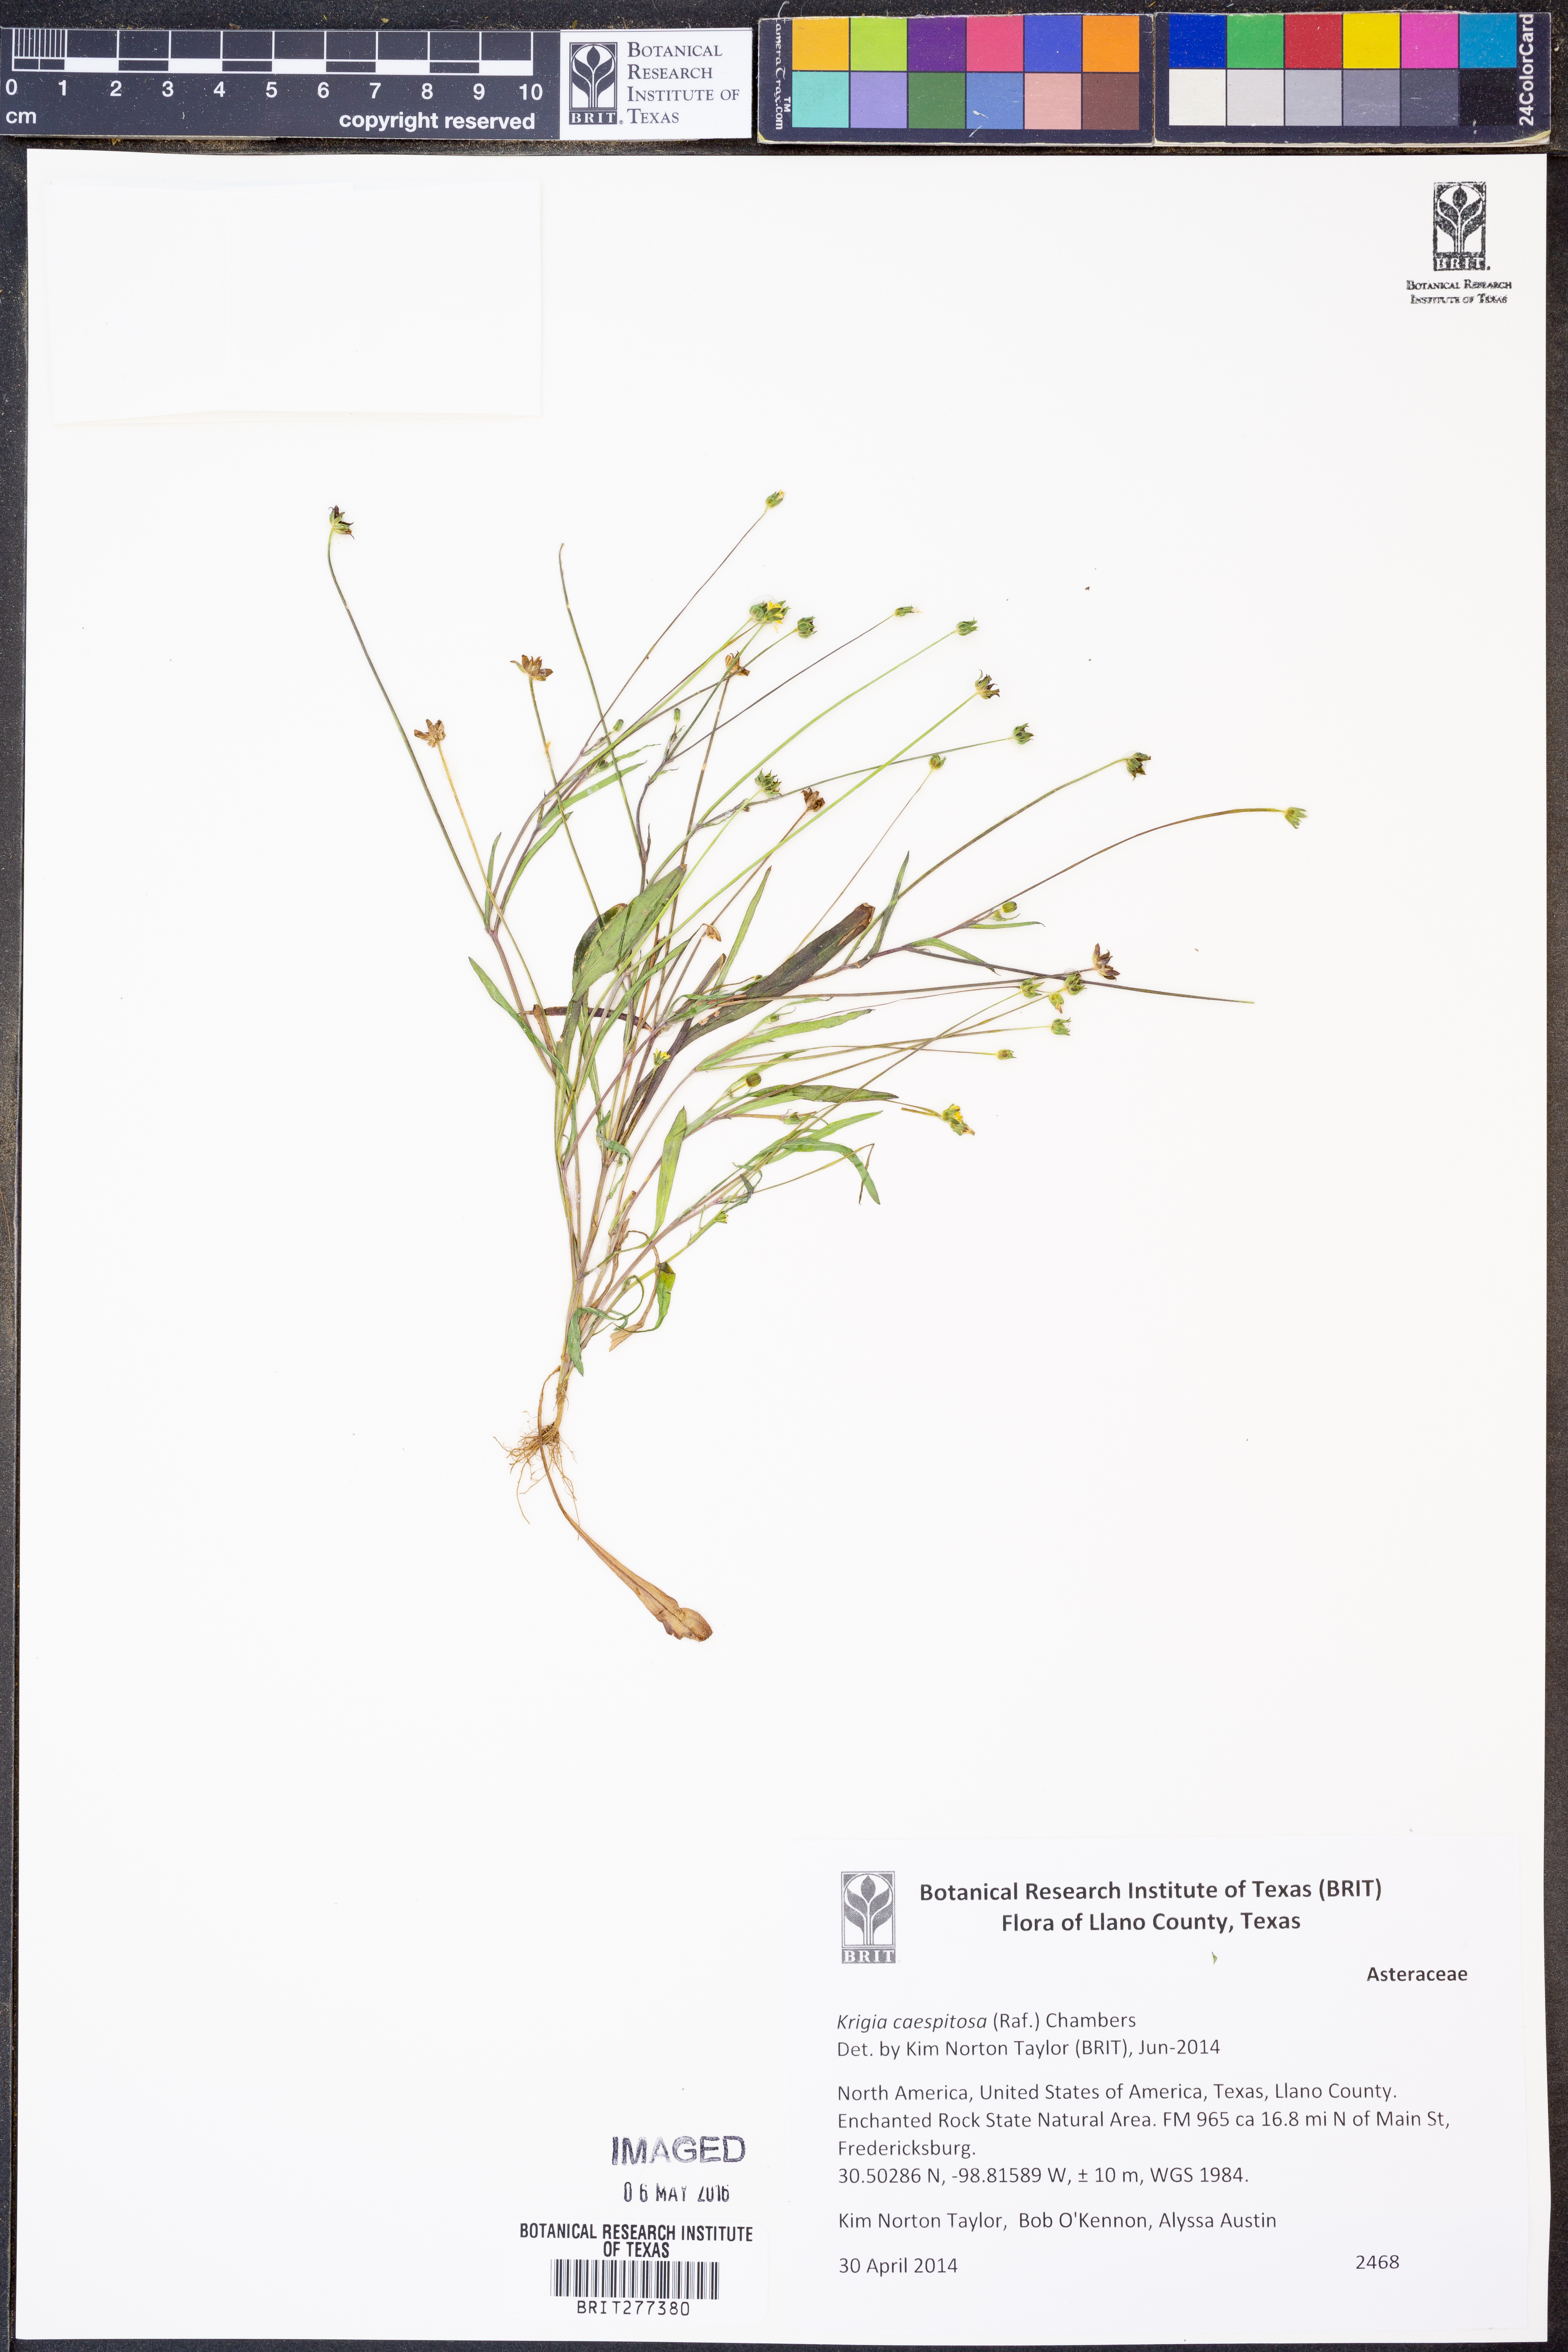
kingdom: Plantae
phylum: Tracheophyta
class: Magnoliopsida
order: Asterales
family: Asteraceae
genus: Krigia
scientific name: Krigia caespitosa
